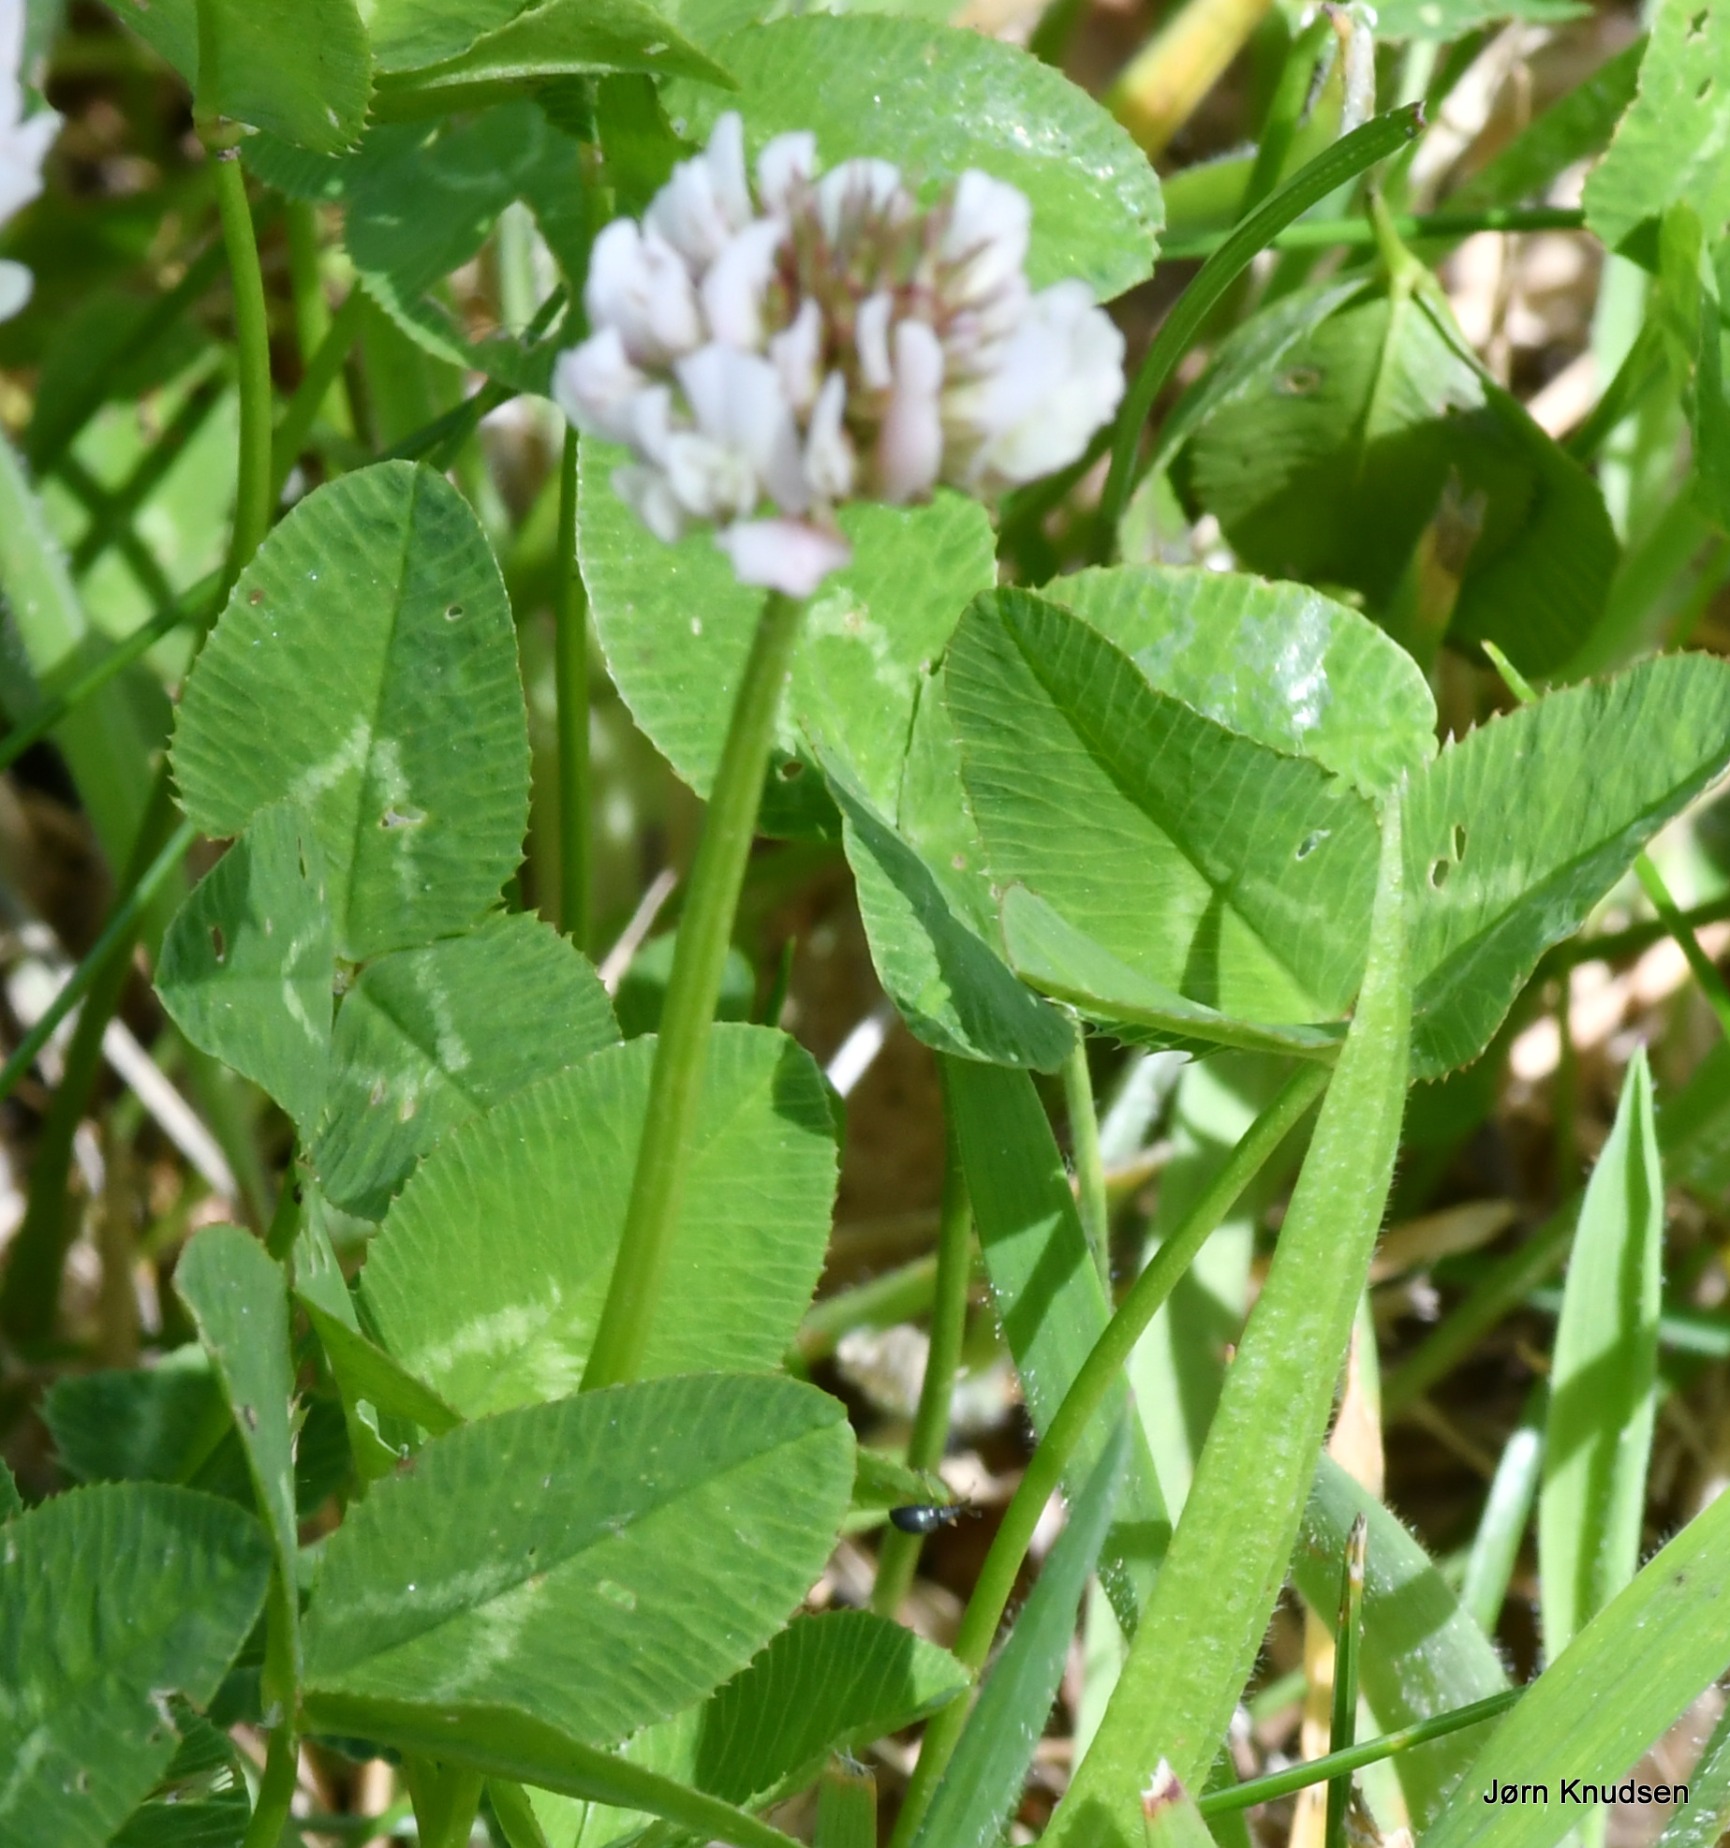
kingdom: Plantae
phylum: Tracheophyta
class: Magnoliopsida
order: Fabales
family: Fabaceae
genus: Trifolium
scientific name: Trifolium repens
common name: Hvid-kløver
